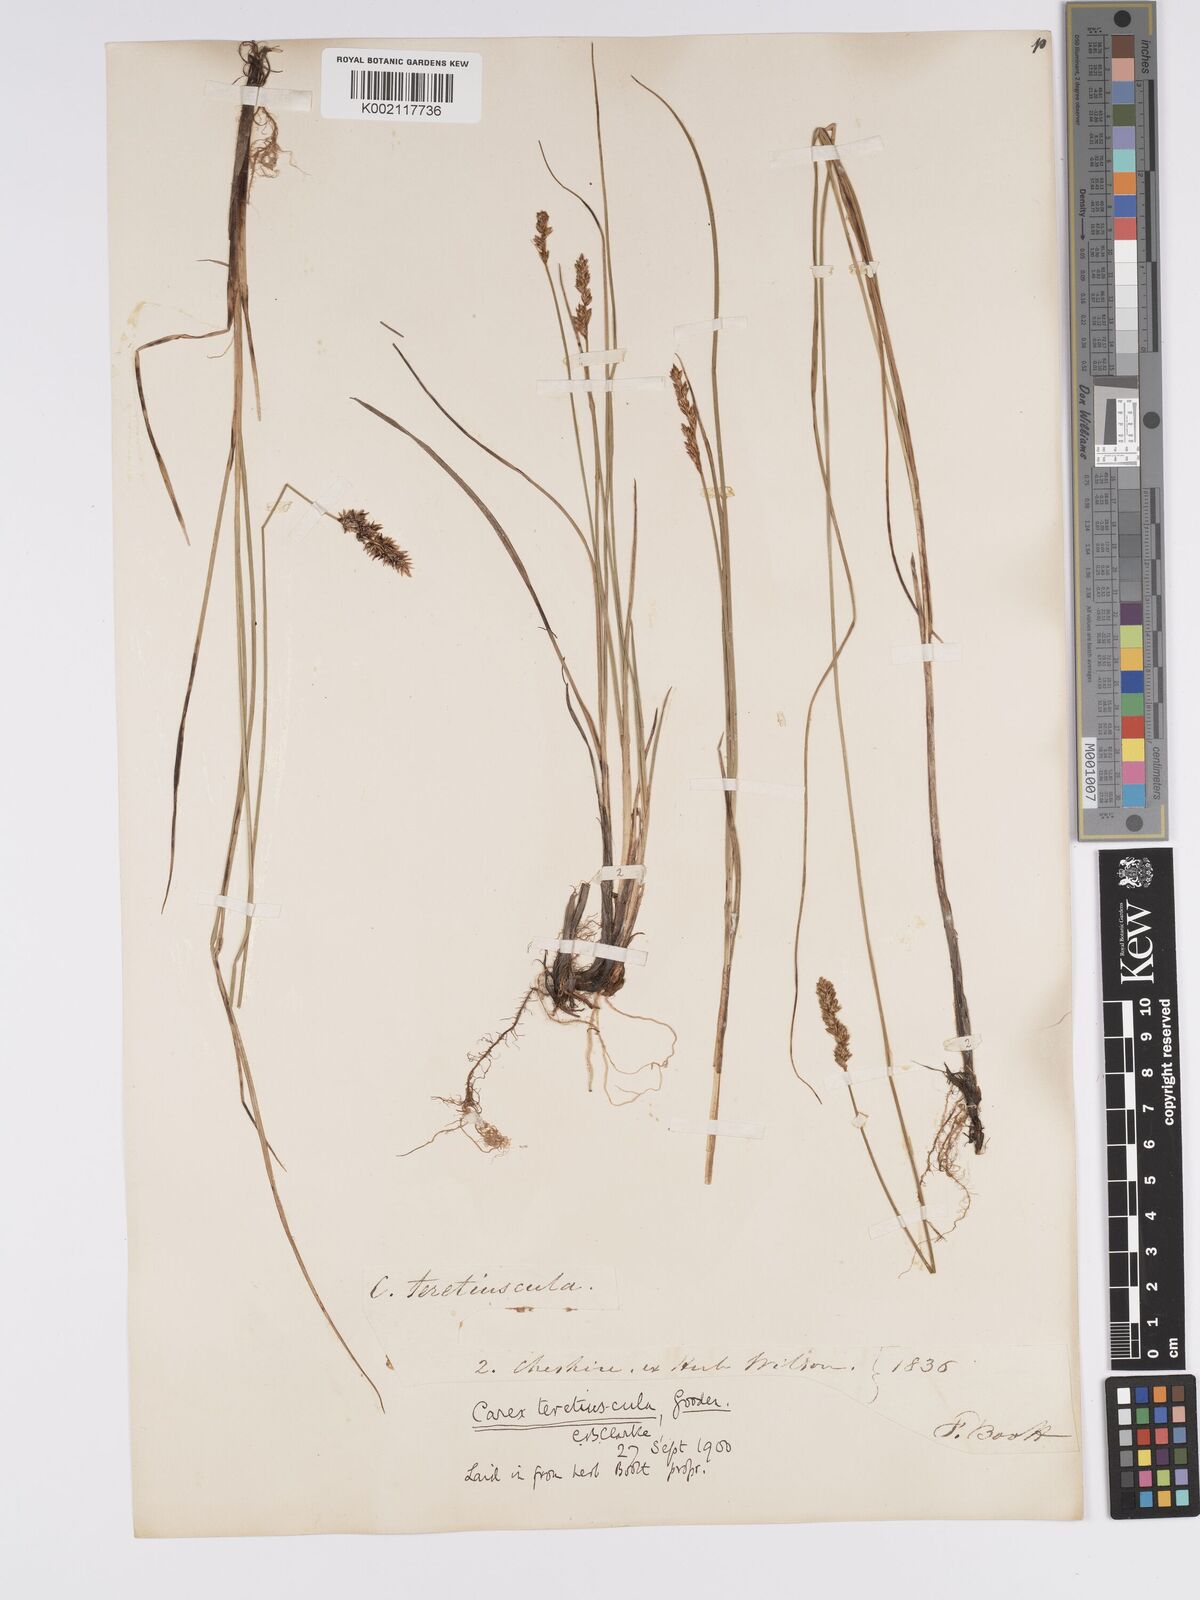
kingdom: Plantae
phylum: Tracheophyta
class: Liliopsida
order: Poales
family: Cyperaceae
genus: Carex
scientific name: Carex diandra
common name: Lesser tussock-sedge
